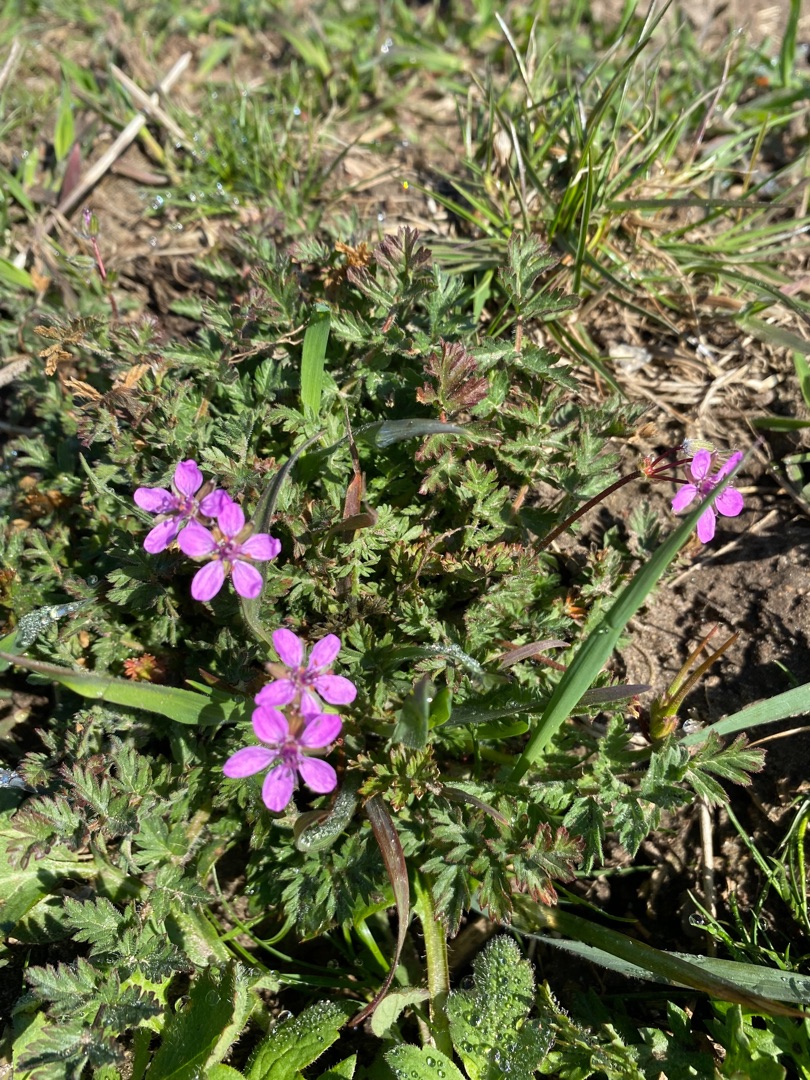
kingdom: Plantae
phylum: Tracheophyta
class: Magnoliopsida
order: Geraniales
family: Geraniaceae
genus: Erodium
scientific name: Erodium cicutarium
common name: Hejrenæb
